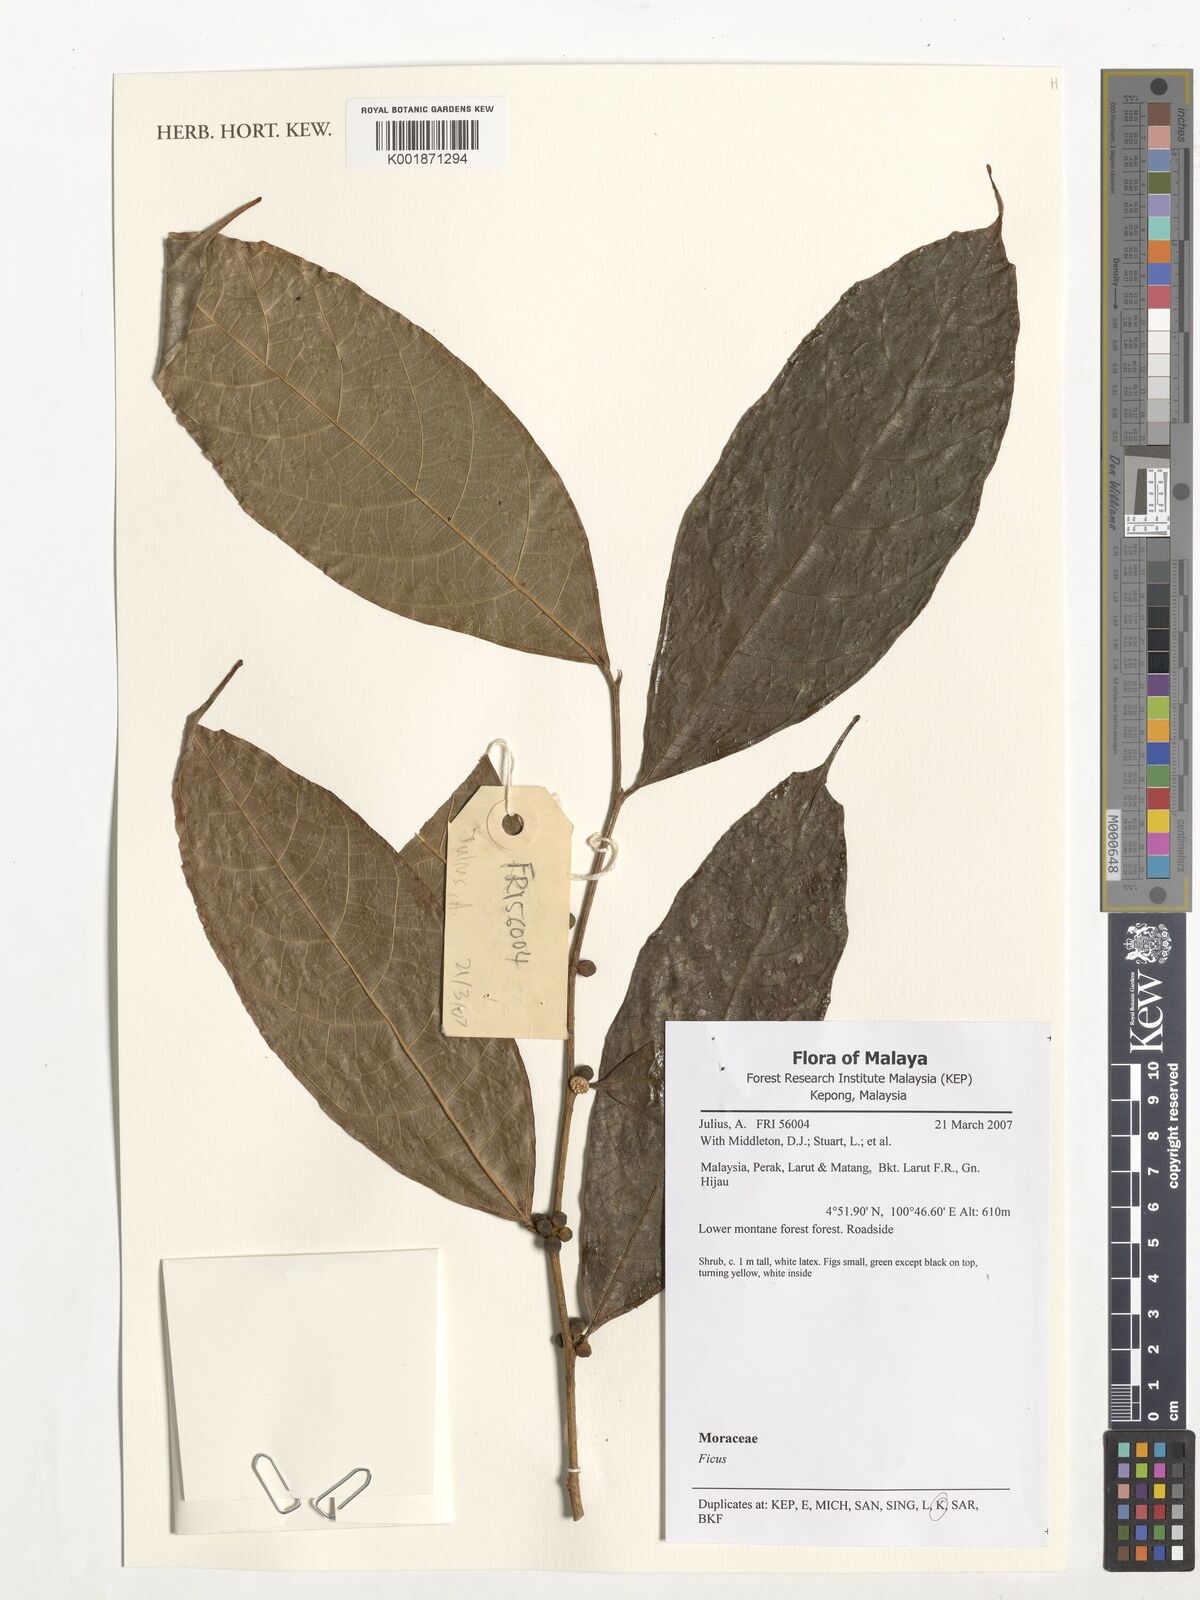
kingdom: Plantae
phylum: Tracheophyta
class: Magnoliopsida
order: Rosales
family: Moraceae
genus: Ficus
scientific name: Ficus
